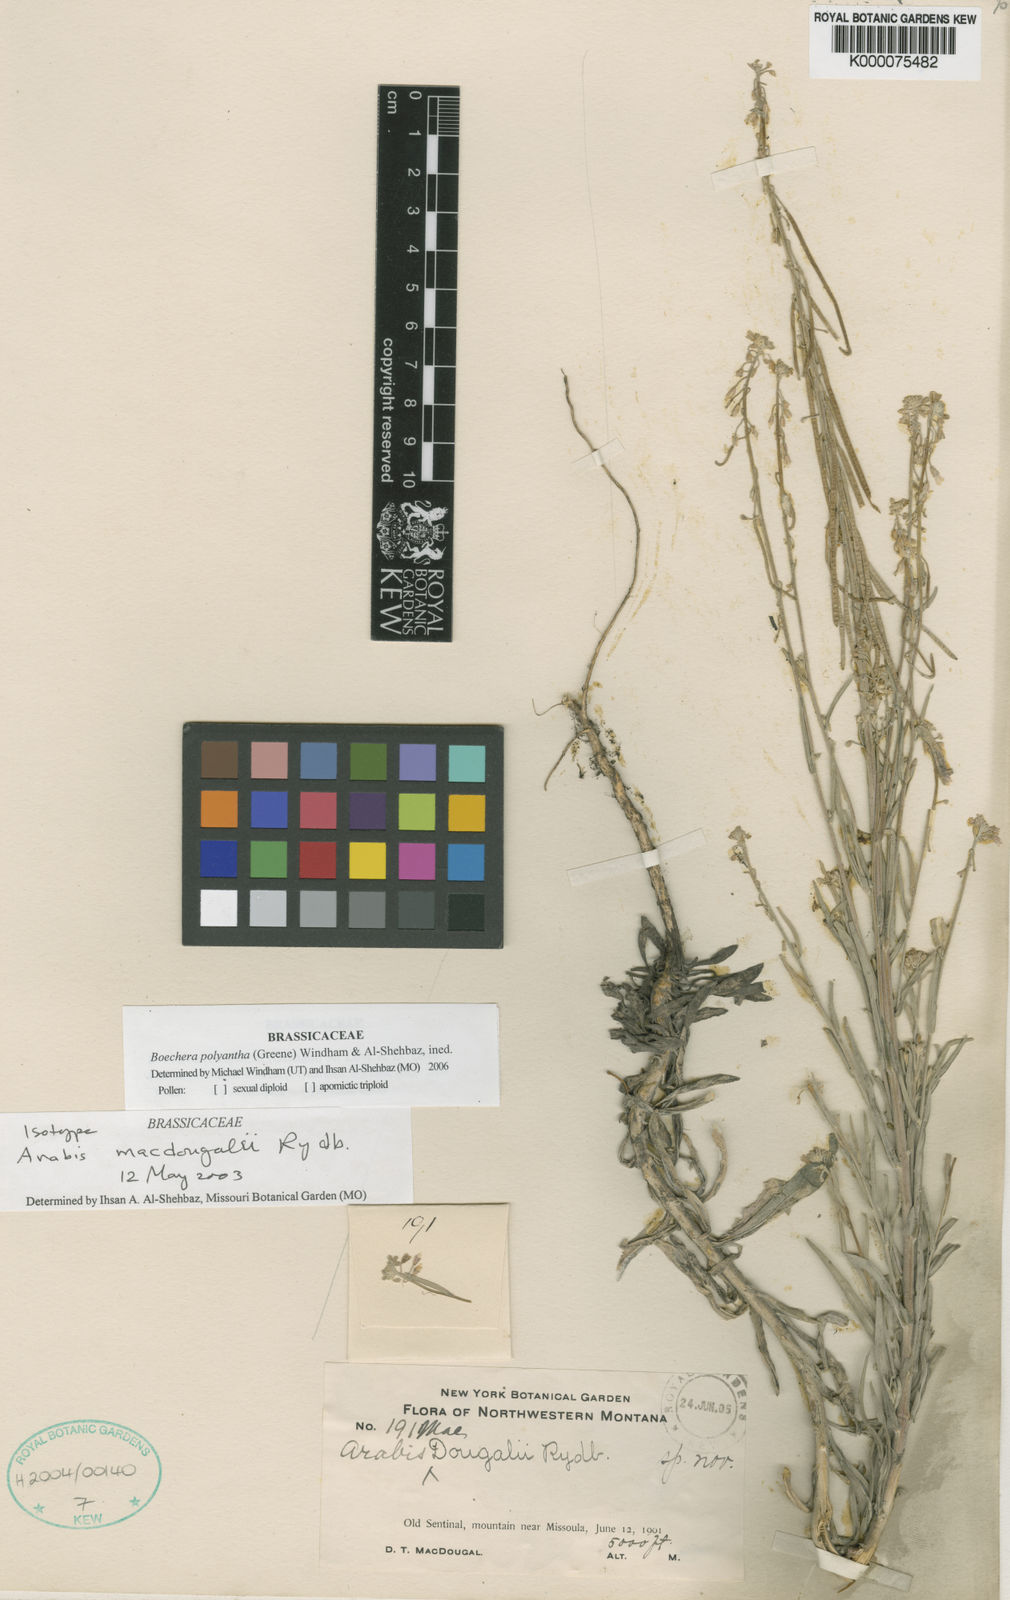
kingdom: Plantae
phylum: Tracheophyta
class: Magnoliopsida
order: Brassicales
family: Brassicaceae
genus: Boechera
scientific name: Boechera polyantha
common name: Many-flowered rockcress
